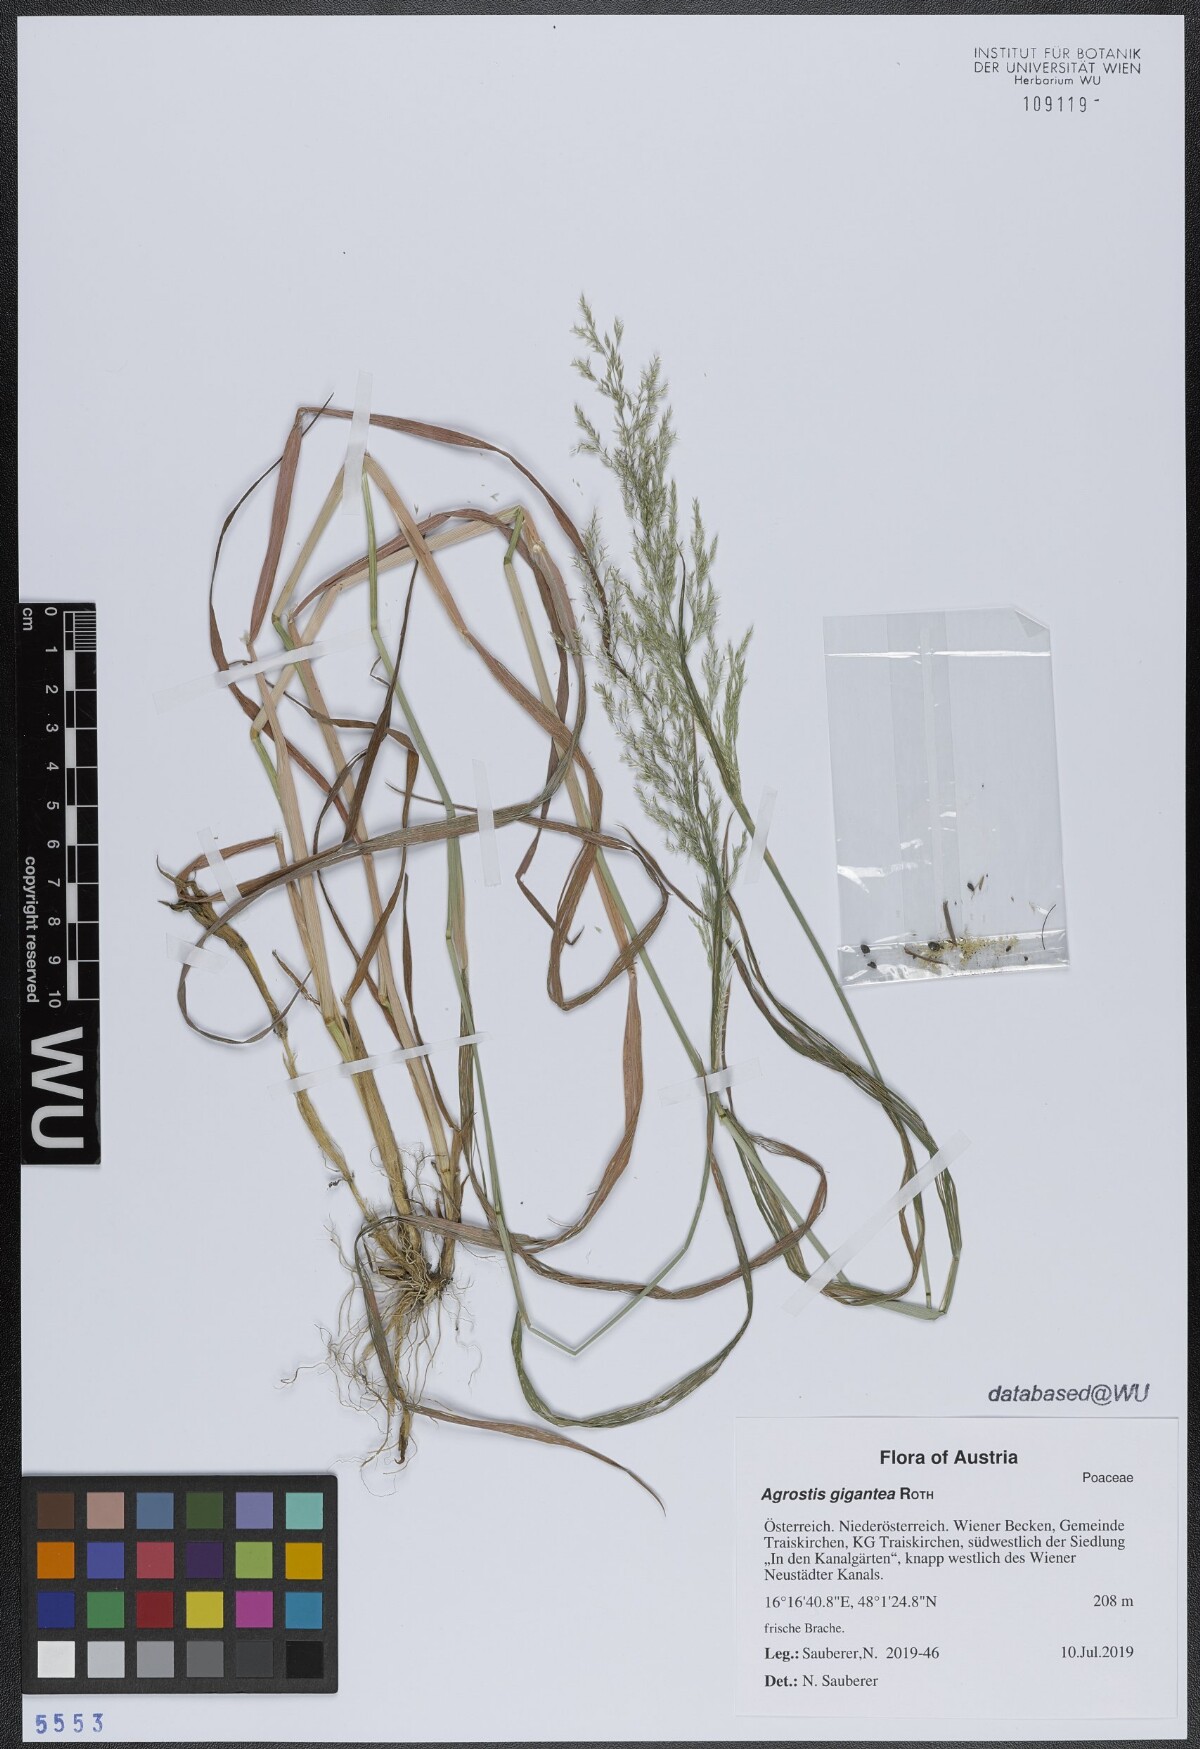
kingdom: Plantae
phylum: Tracheophyta
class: Liliopsida
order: Poales
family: Poaceae
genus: Agrostis
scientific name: Agrostis gigantea
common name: Black bent
